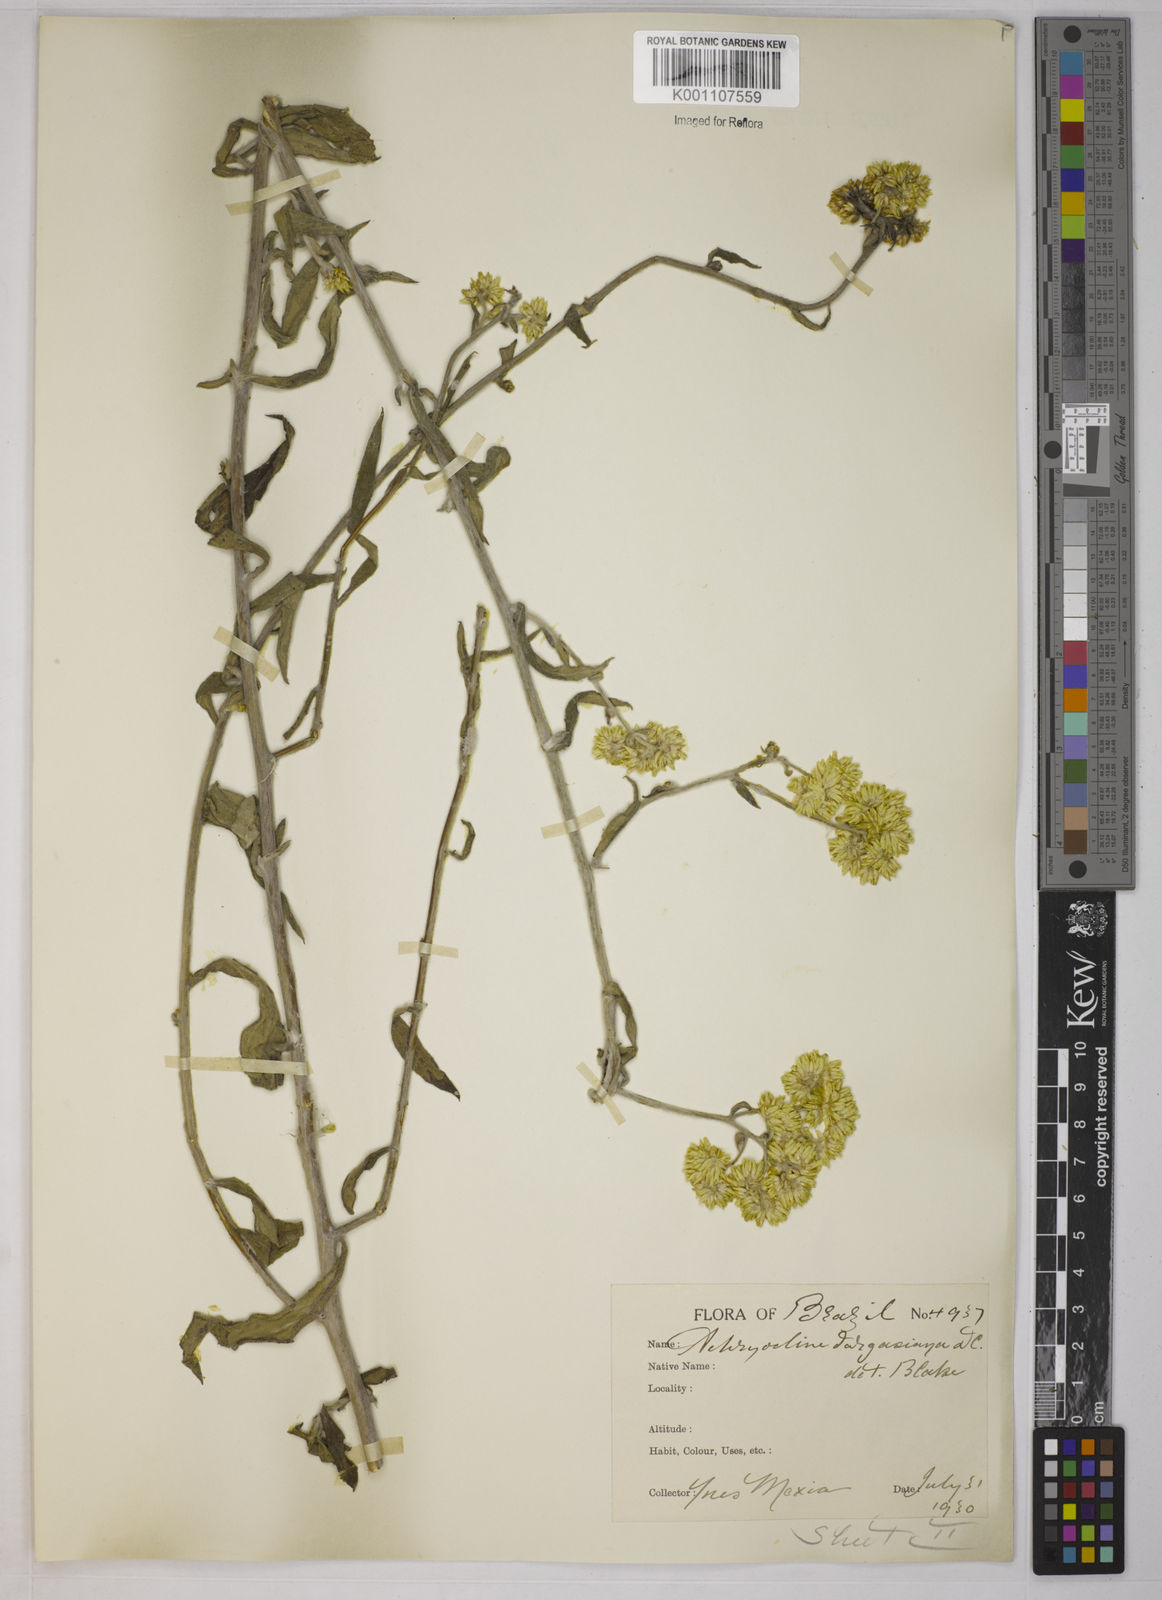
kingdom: Plantae
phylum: Tracheophyta
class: Magnoliopsida
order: Asterales
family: Asteraceae
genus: Achyrocline
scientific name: Achyrocline vargasiana
